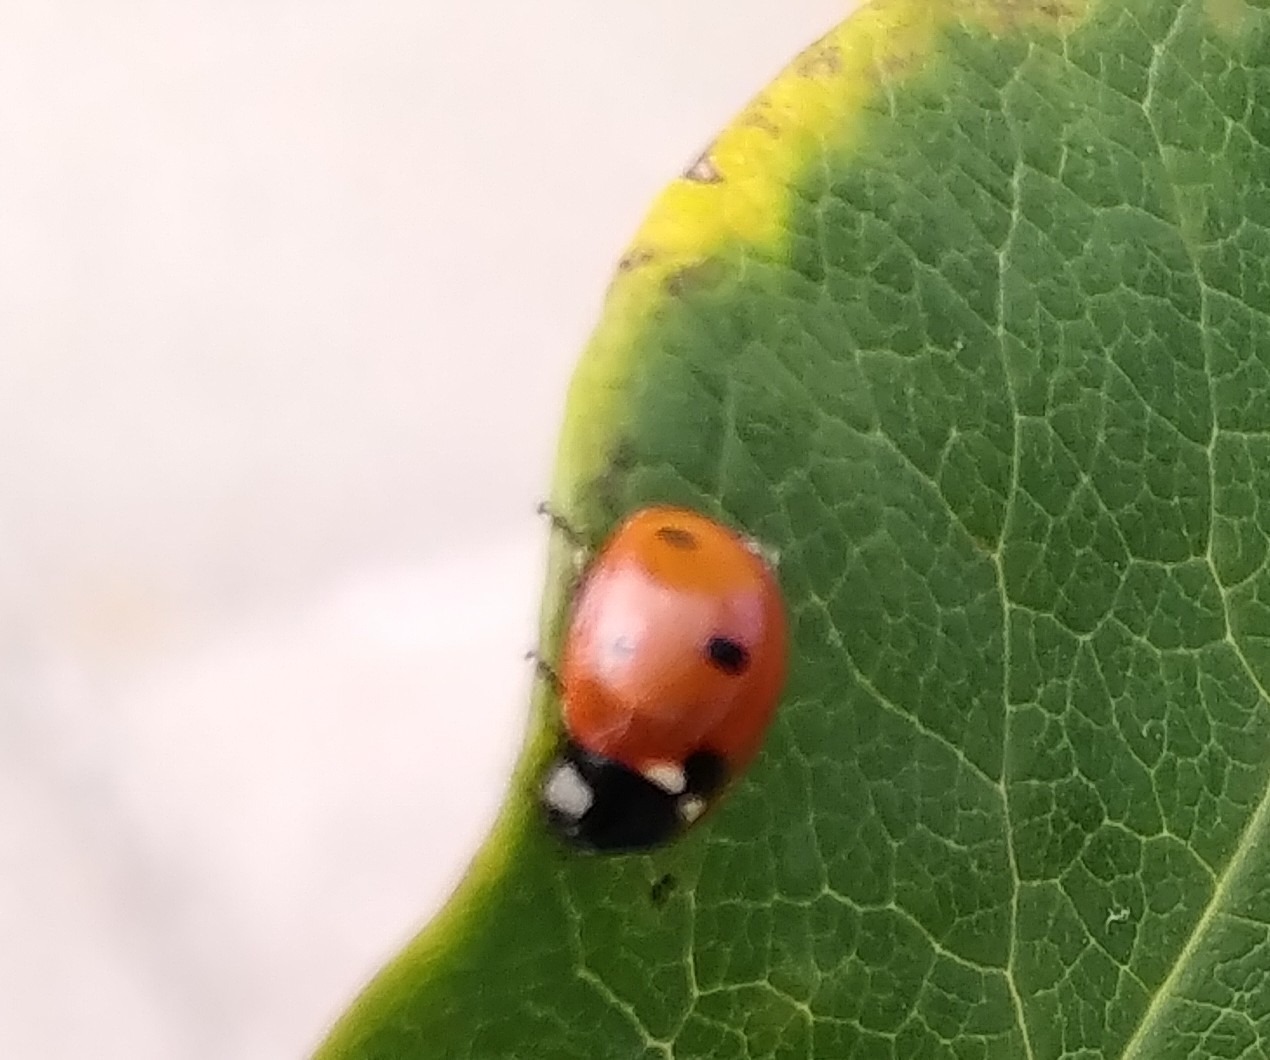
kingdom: Animalia
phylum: Arthropoda
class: Insecta
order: Coleoptera
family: Coccinellidae
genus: Coccinella
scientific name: Coccinella quinquepunctata
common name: Femplettet mariehøne
